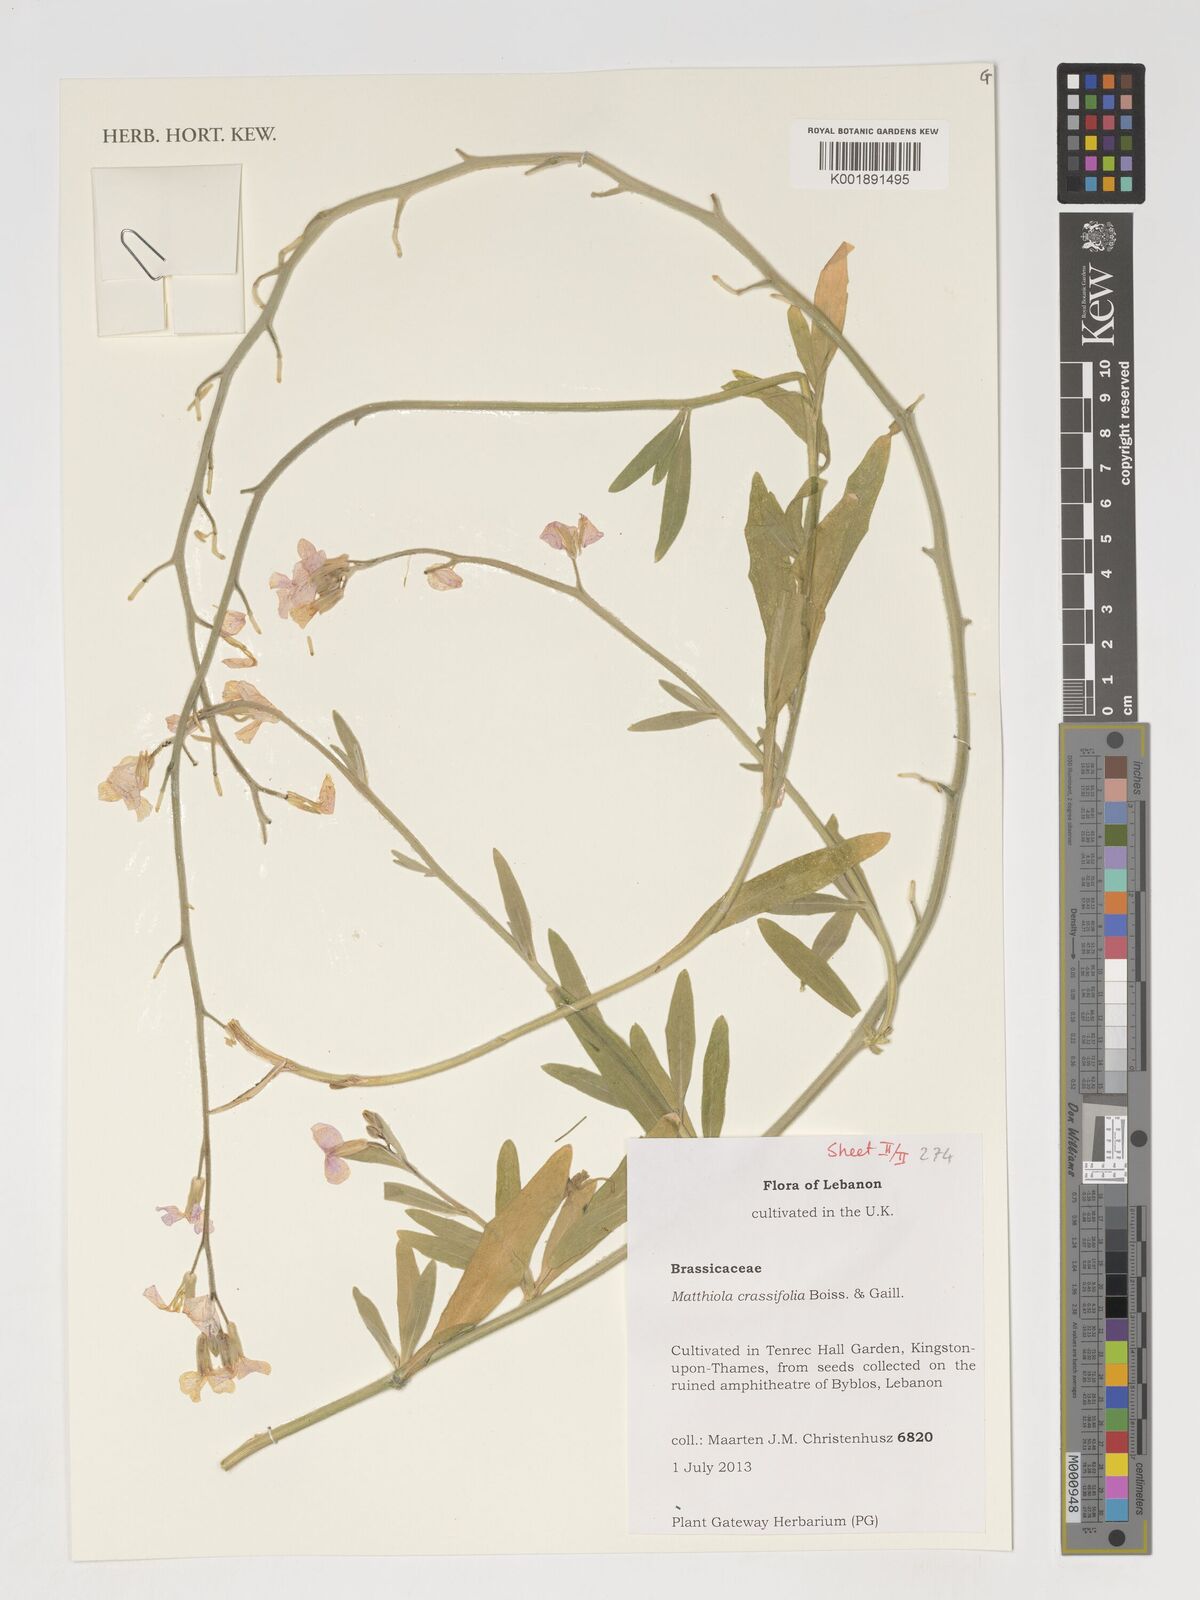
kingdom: Plantae
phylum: Tracheophyta
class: Magnoliopsida
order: Brassicales
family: Brassicaceae
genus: Matthiola
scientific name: Matthiola crassifolia
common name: Thick-leaved stock of beirut
